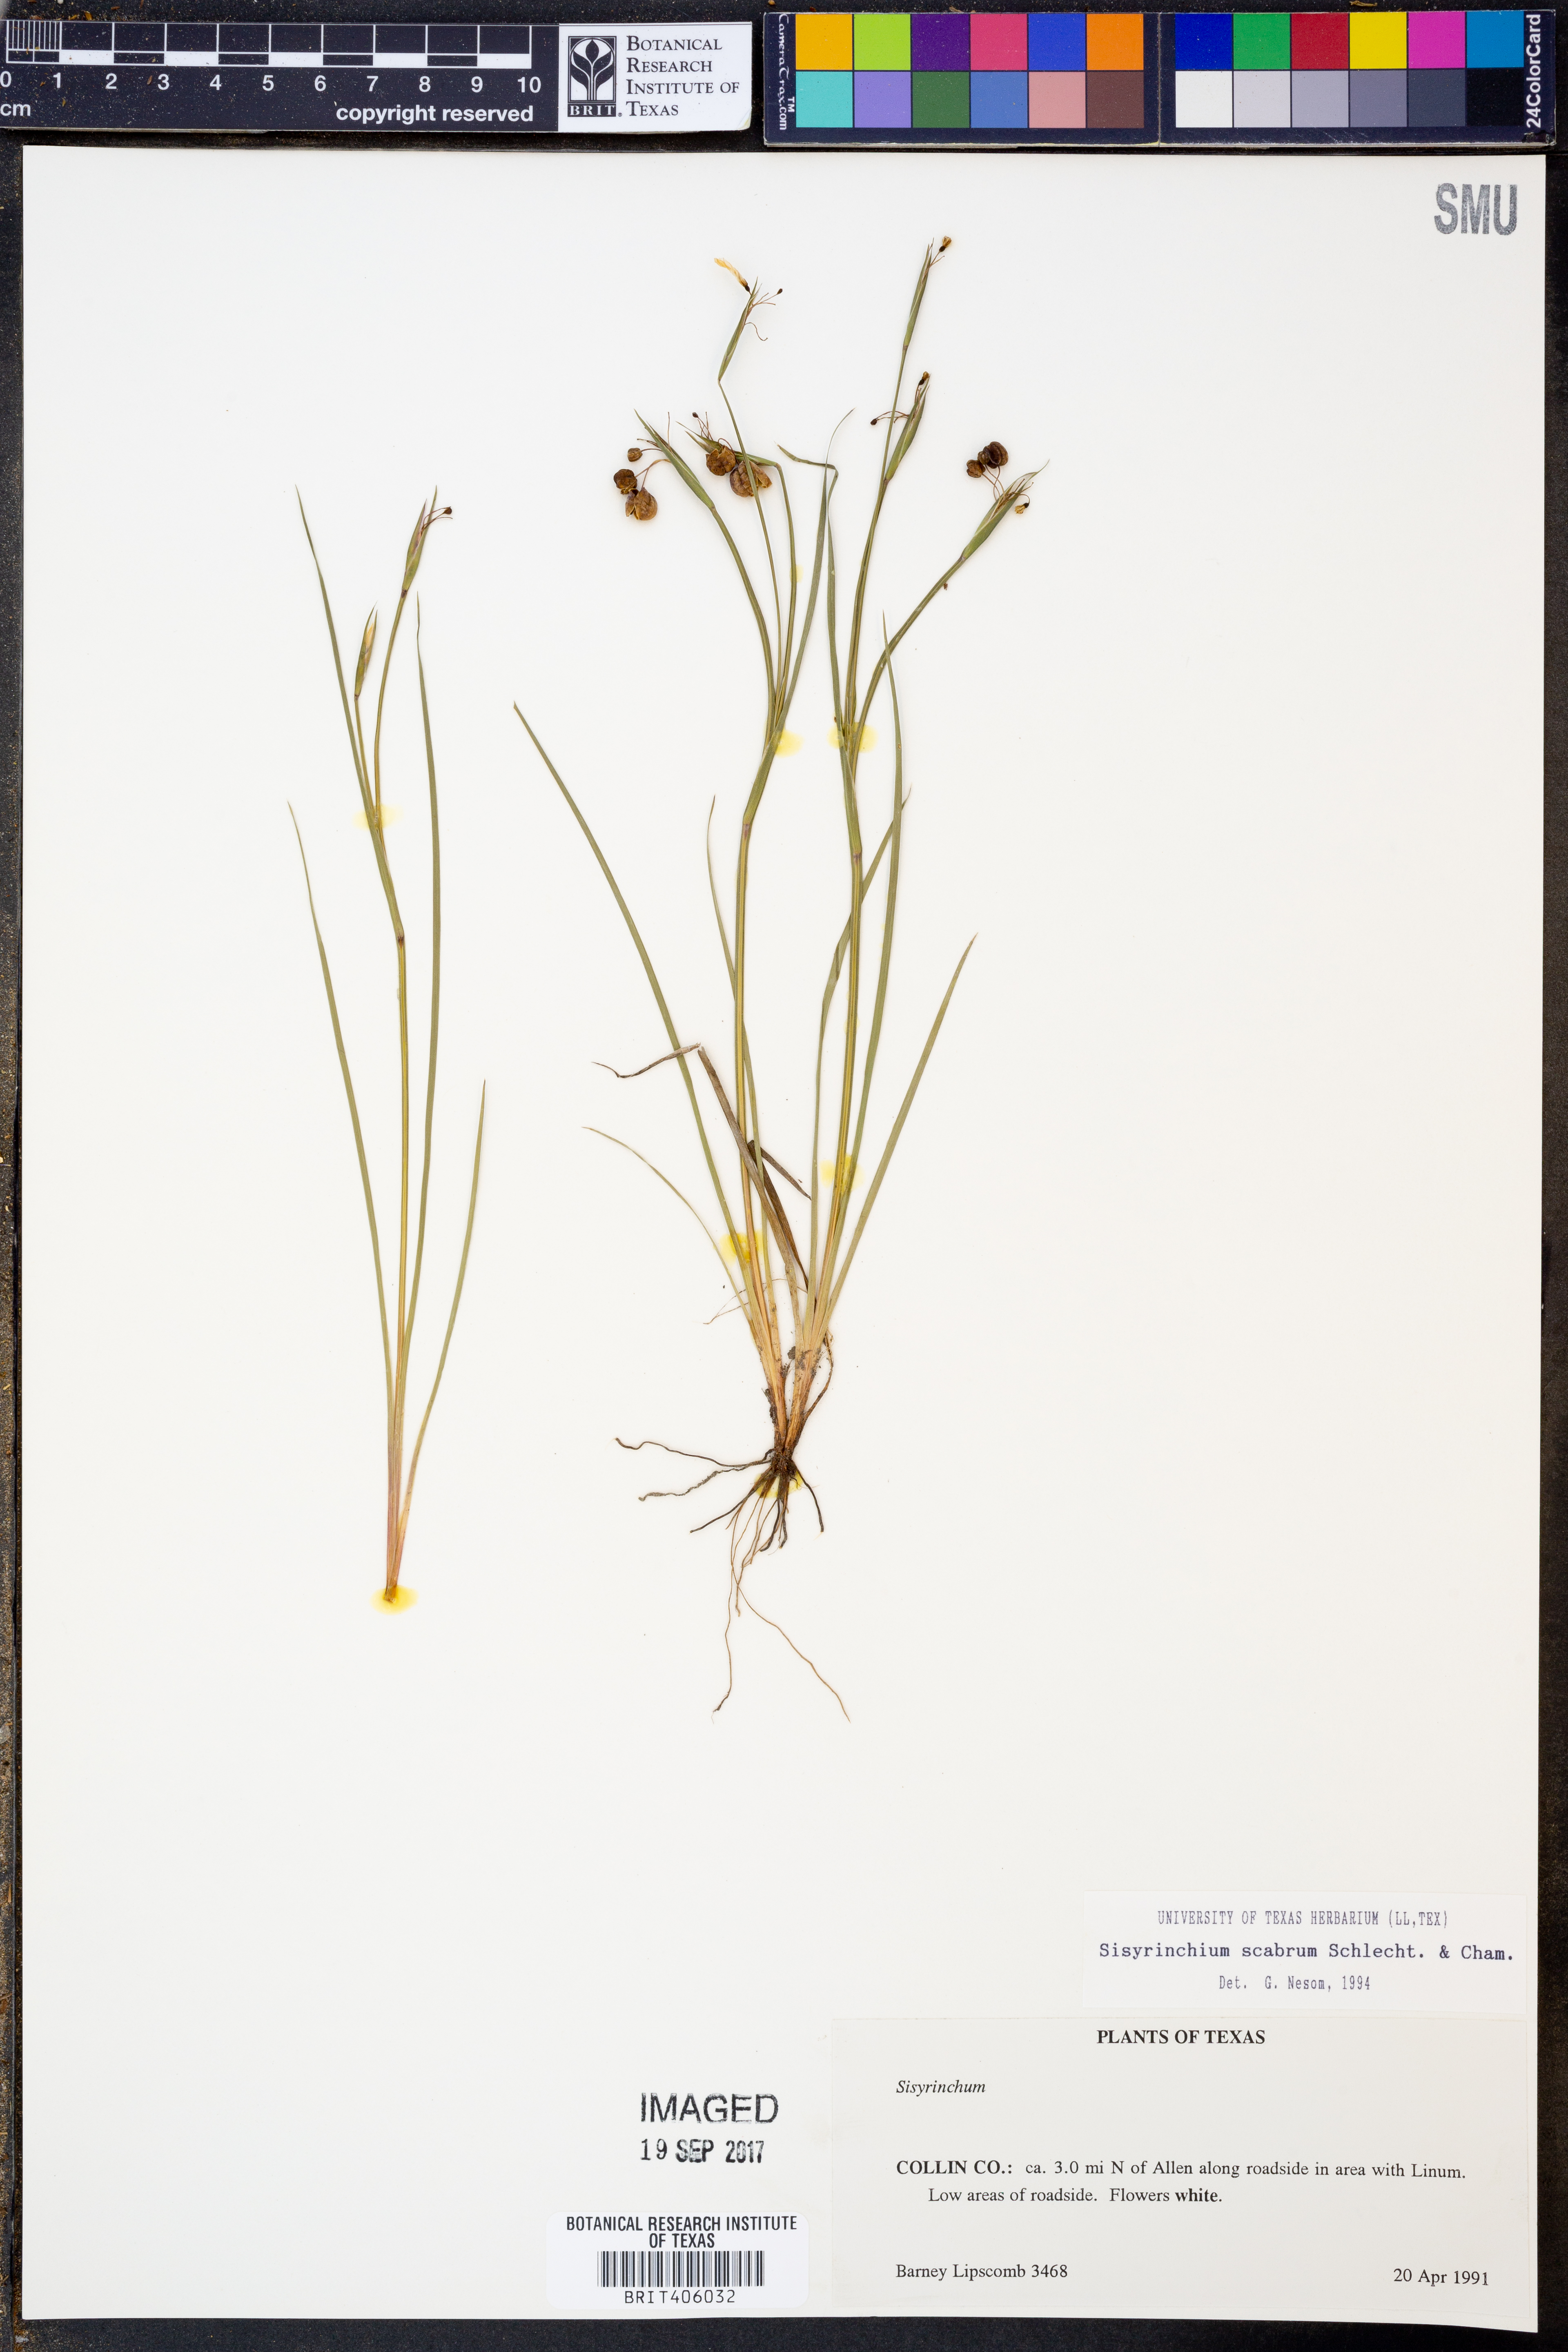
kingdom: Plantae
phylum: Tracheophyta
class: Liliopsida
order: Asparagales
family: Iridaceae
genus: Sisyrinchium
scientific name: Sisyrinchium scabrum
